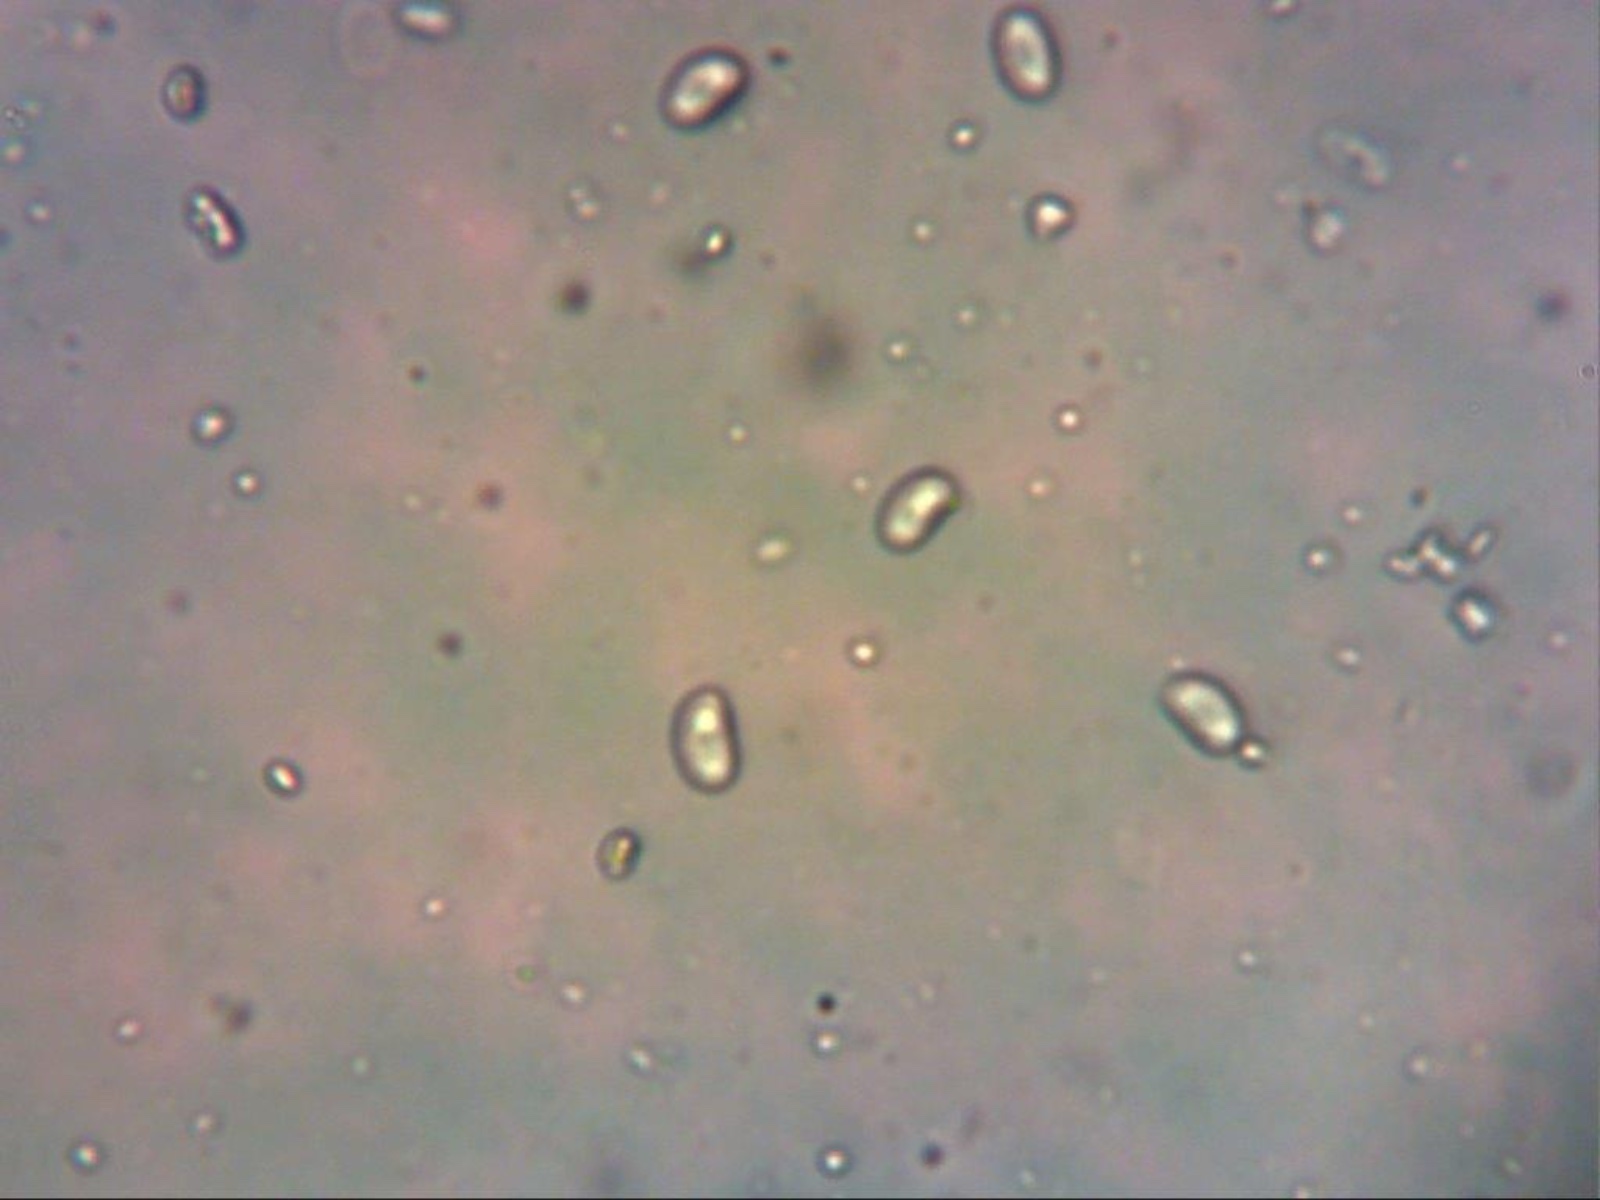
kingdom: Fungi
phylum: Basidiomycota
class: Agaricomycetes
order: Polyporales
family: Steccherinaceae
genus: Steccherinum
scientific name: Steccherinum oreophilum
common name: kvist-skønpig
